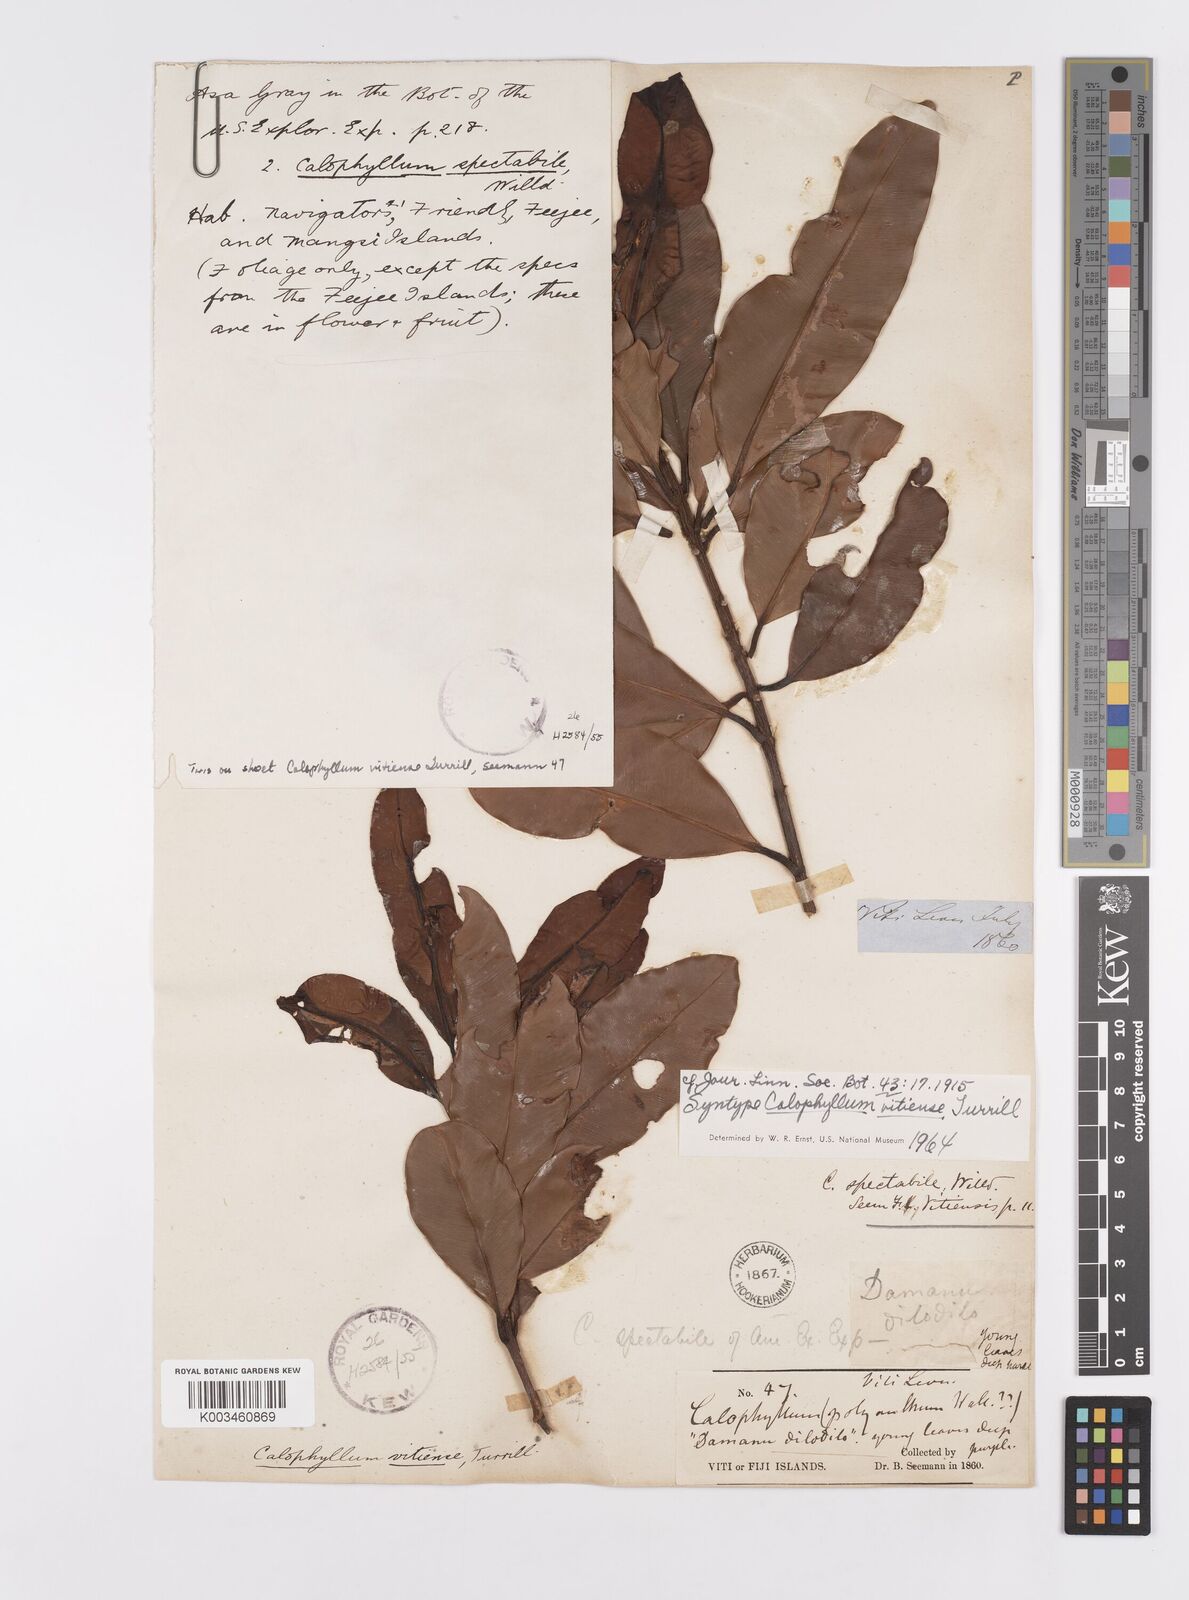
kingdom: Plantae
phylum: Tracheophyta
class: Magnoliopsida
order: Malpighiales
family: Calophyllaceae
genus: Calophyllum
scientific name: Calophyllum vitiense
